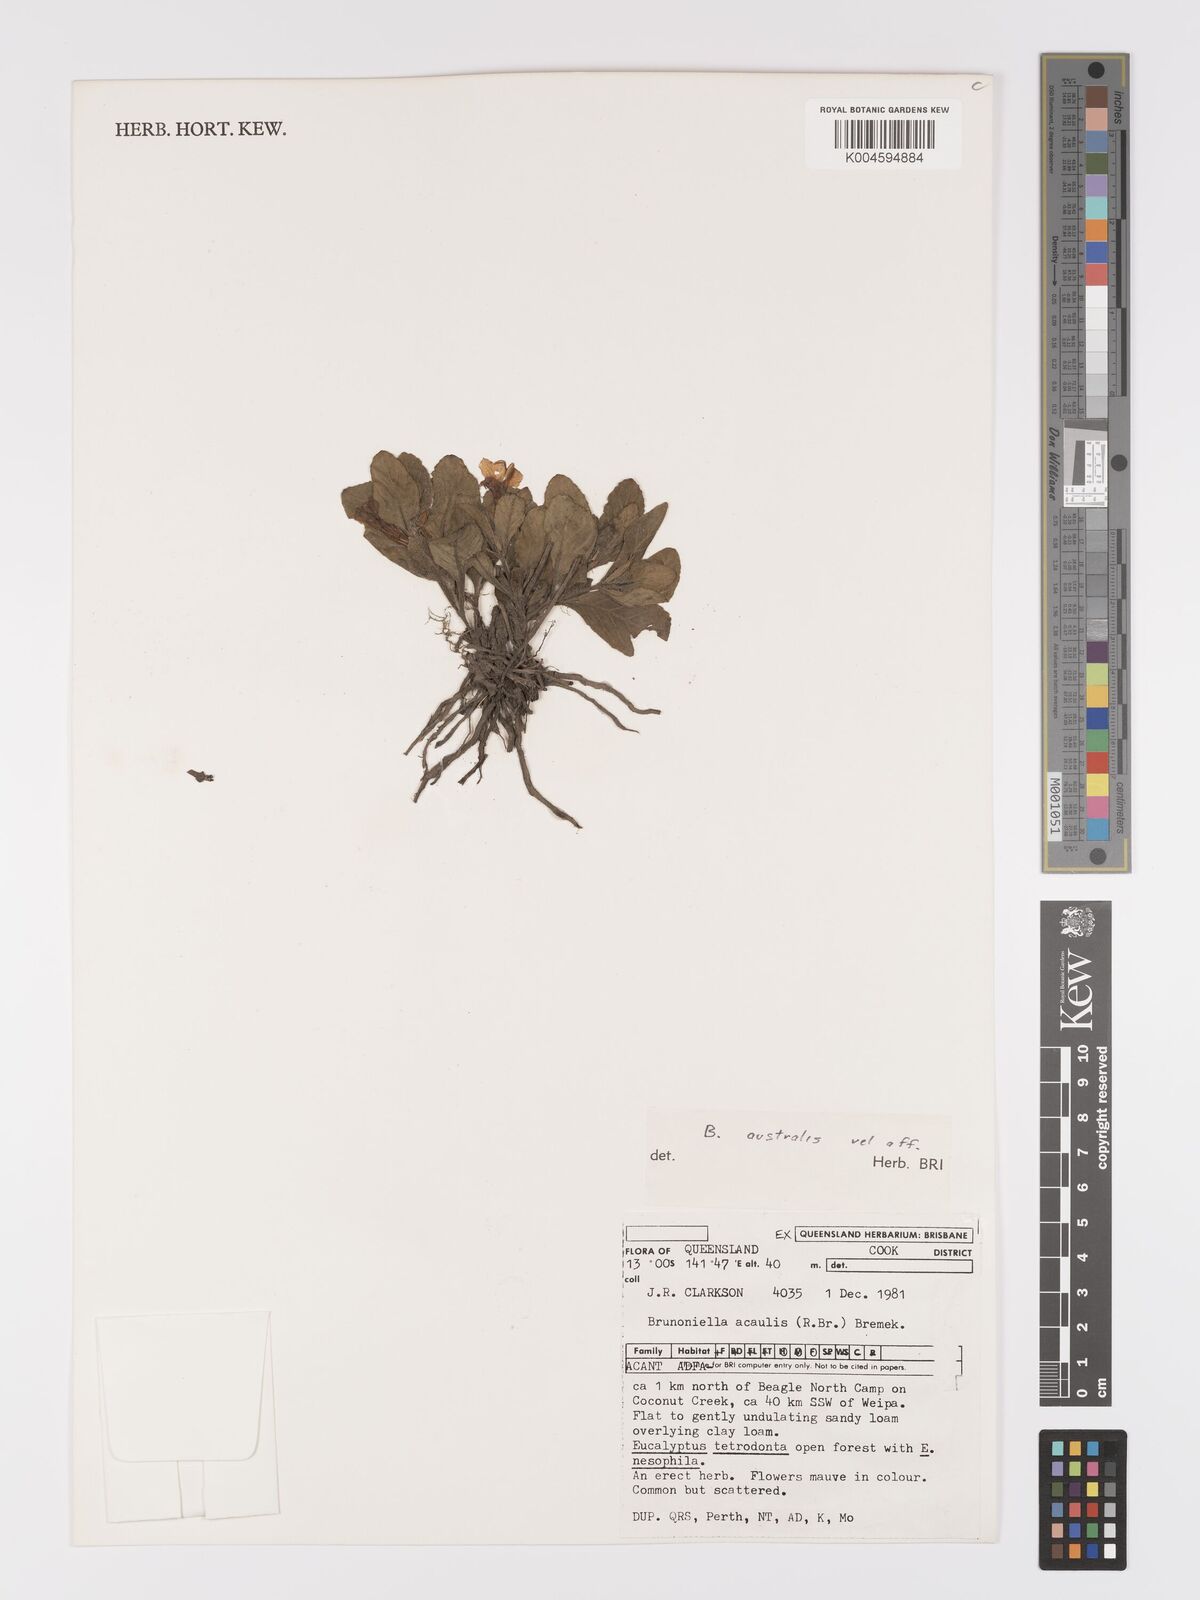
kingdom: Plantae
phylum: Tracheophyta
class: Magnoliopsida
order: Lamiales
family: Acanthaceae
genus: Brunoniella
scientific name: Brunoniella
